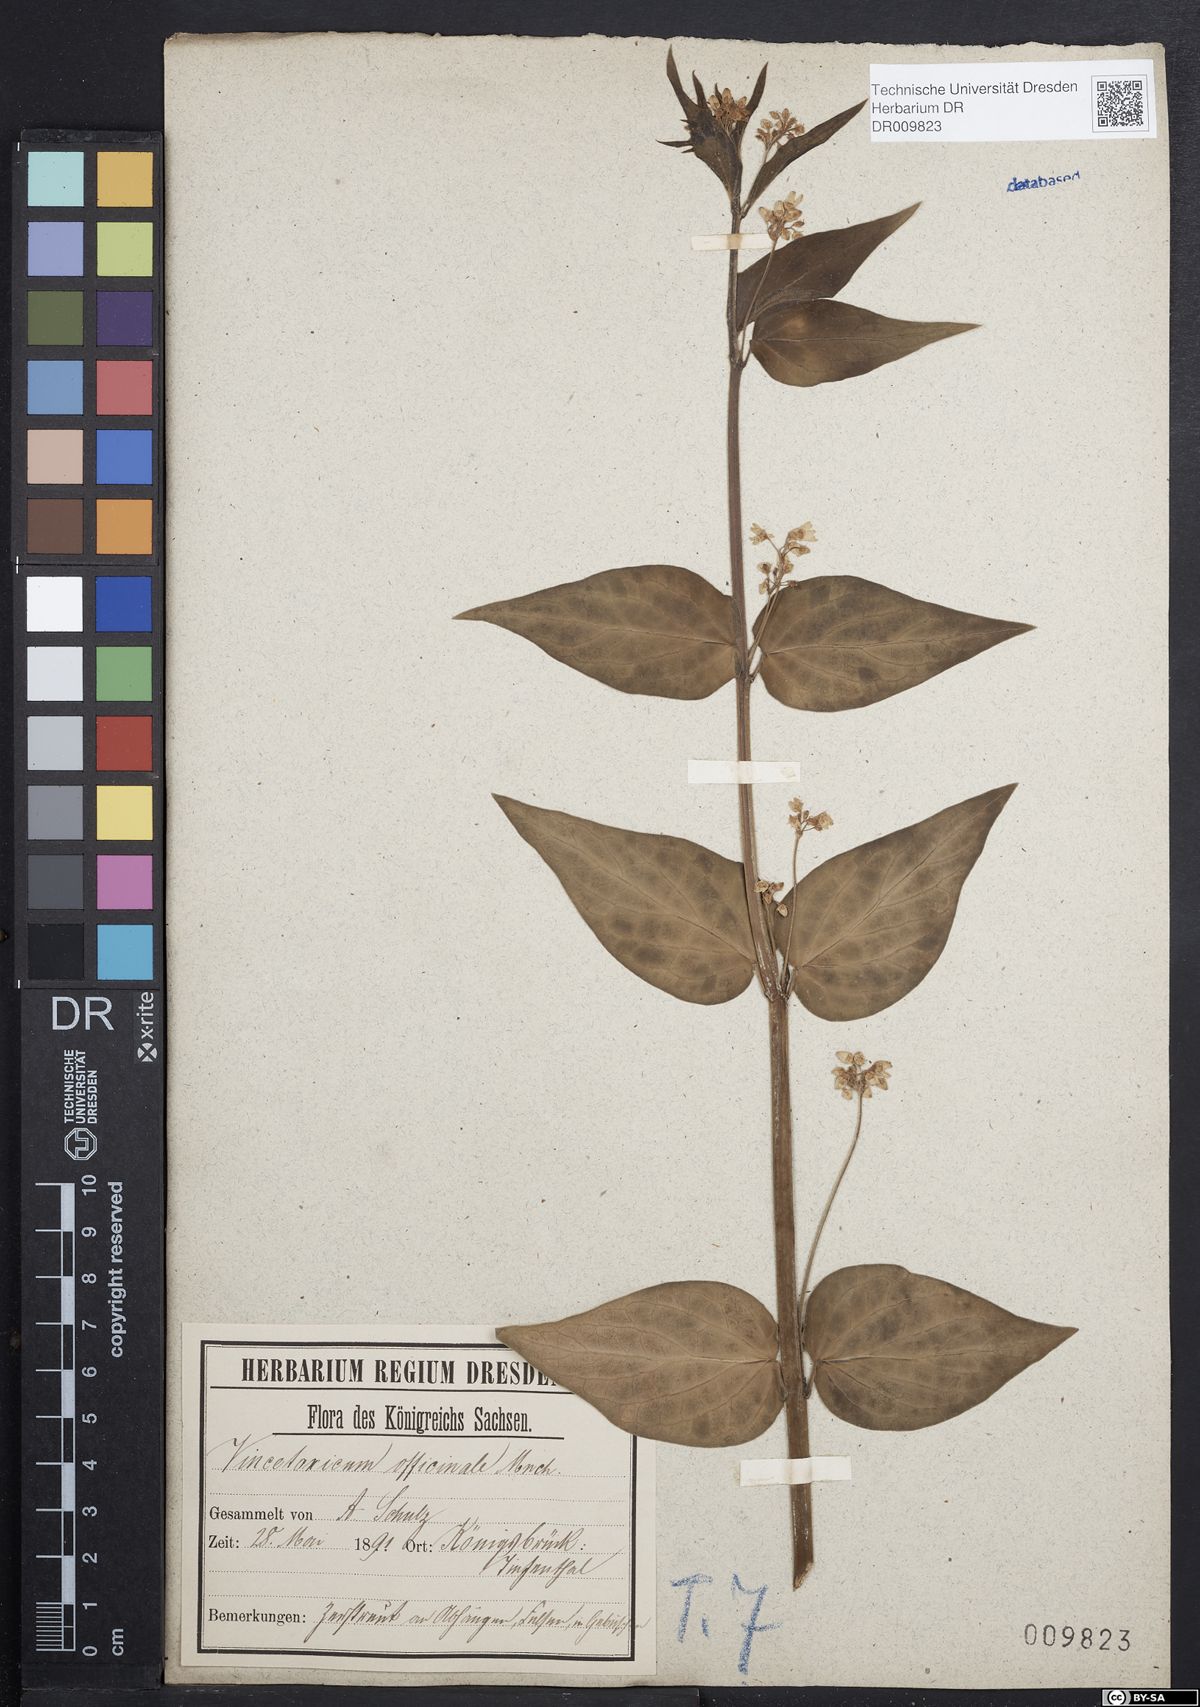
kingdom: Plantae
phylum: Tracheophyta
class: Magnoliopsida
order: Gentianales
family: Apocynaceae
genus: Vincetoxicum
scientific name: Vincetoxicum hirundinaria
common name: White swallowwort
